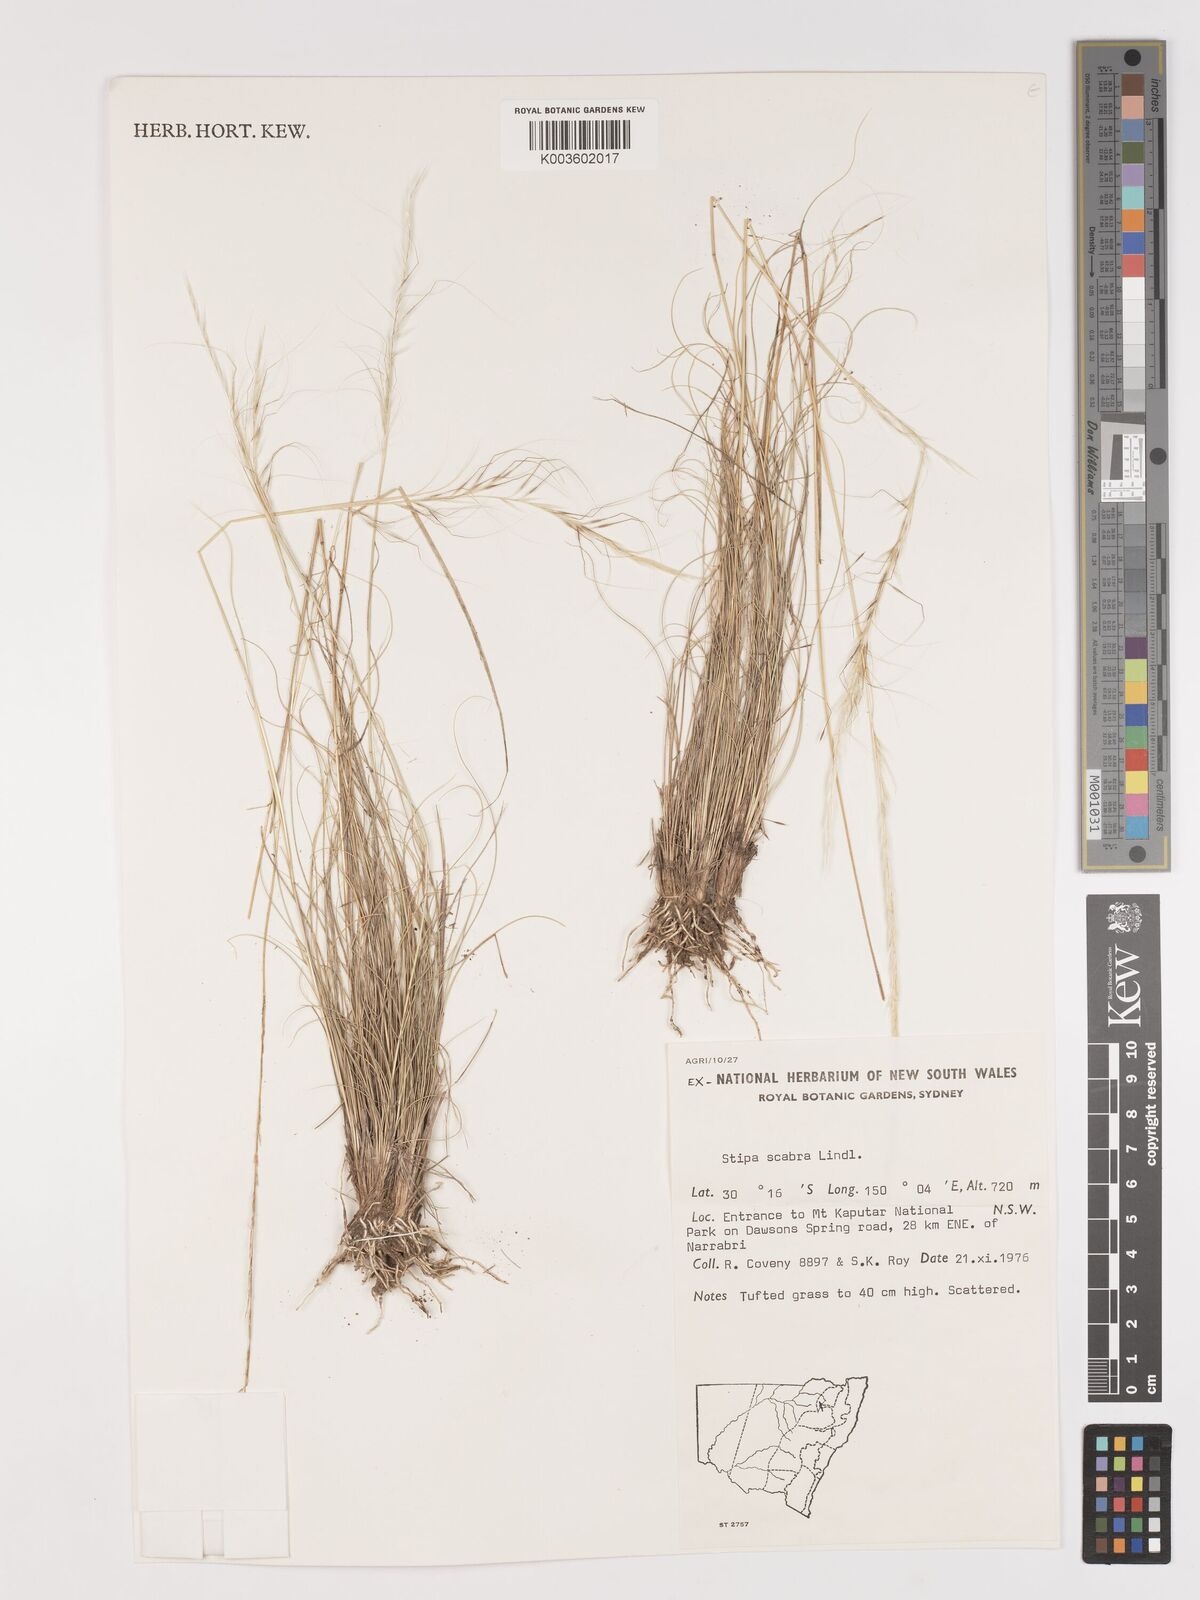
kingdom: Plantae
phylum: Tracheophyta
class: Liliopsida
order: Poales
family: Poaceae
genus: Austrostipa
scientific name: Austrostipa scabra
